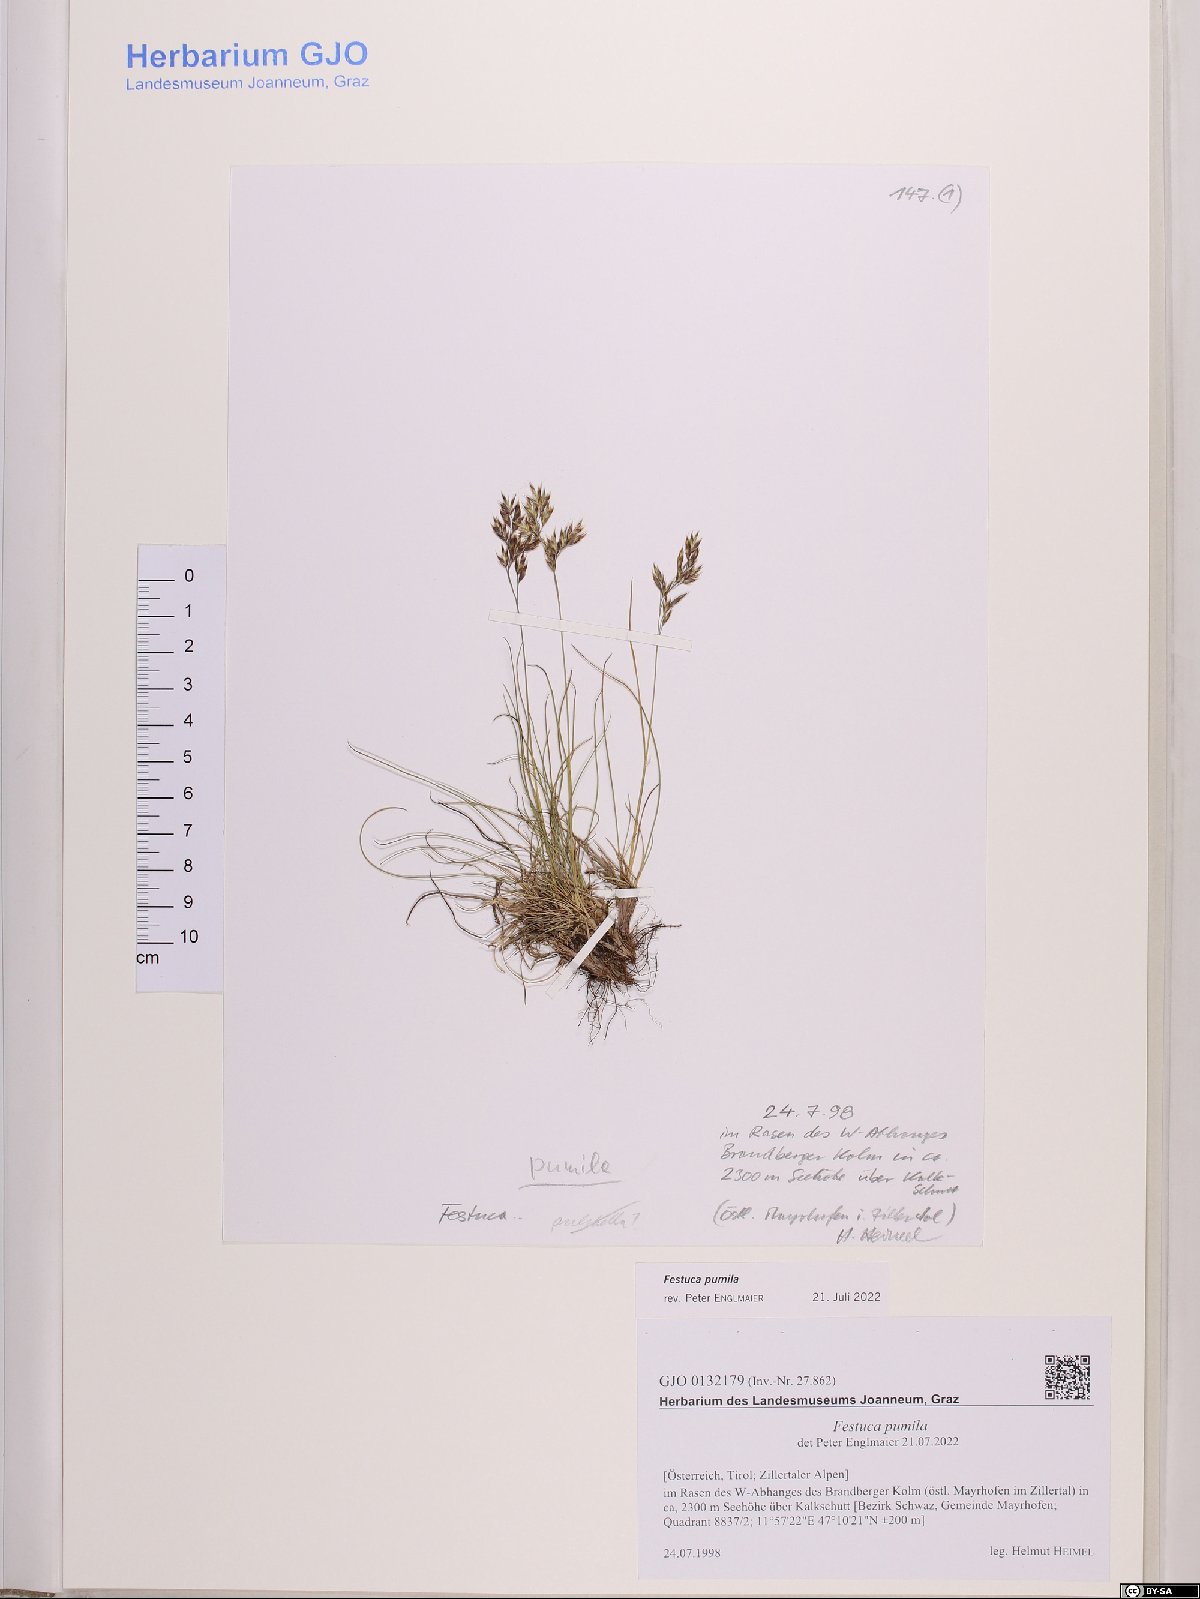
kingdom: Plantae
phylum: Tracheophyta
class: Liliopsida
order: Poales
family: Poaceae
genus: Festuca
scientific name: Festuca quadriflora
